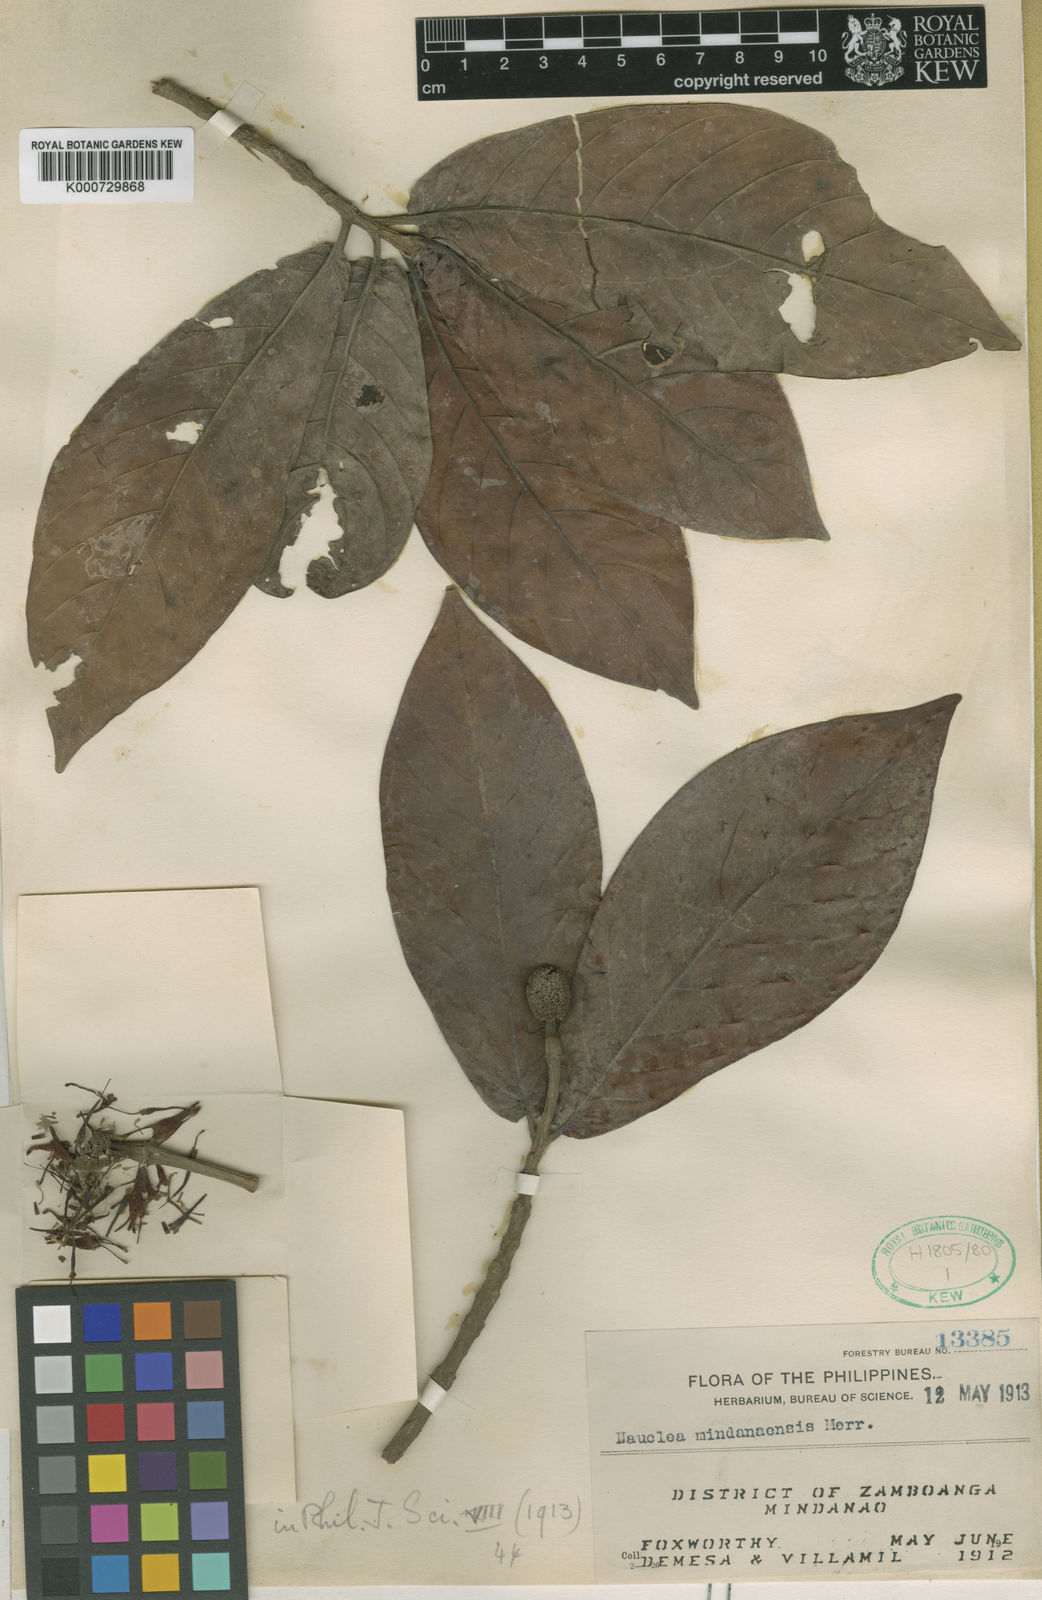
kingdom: Plantae
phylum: Tracheophyta
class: Magnoliopsida
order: Gentianales
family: Rubiaceae
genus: Neonauclea
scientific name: Neonauclea kentii
